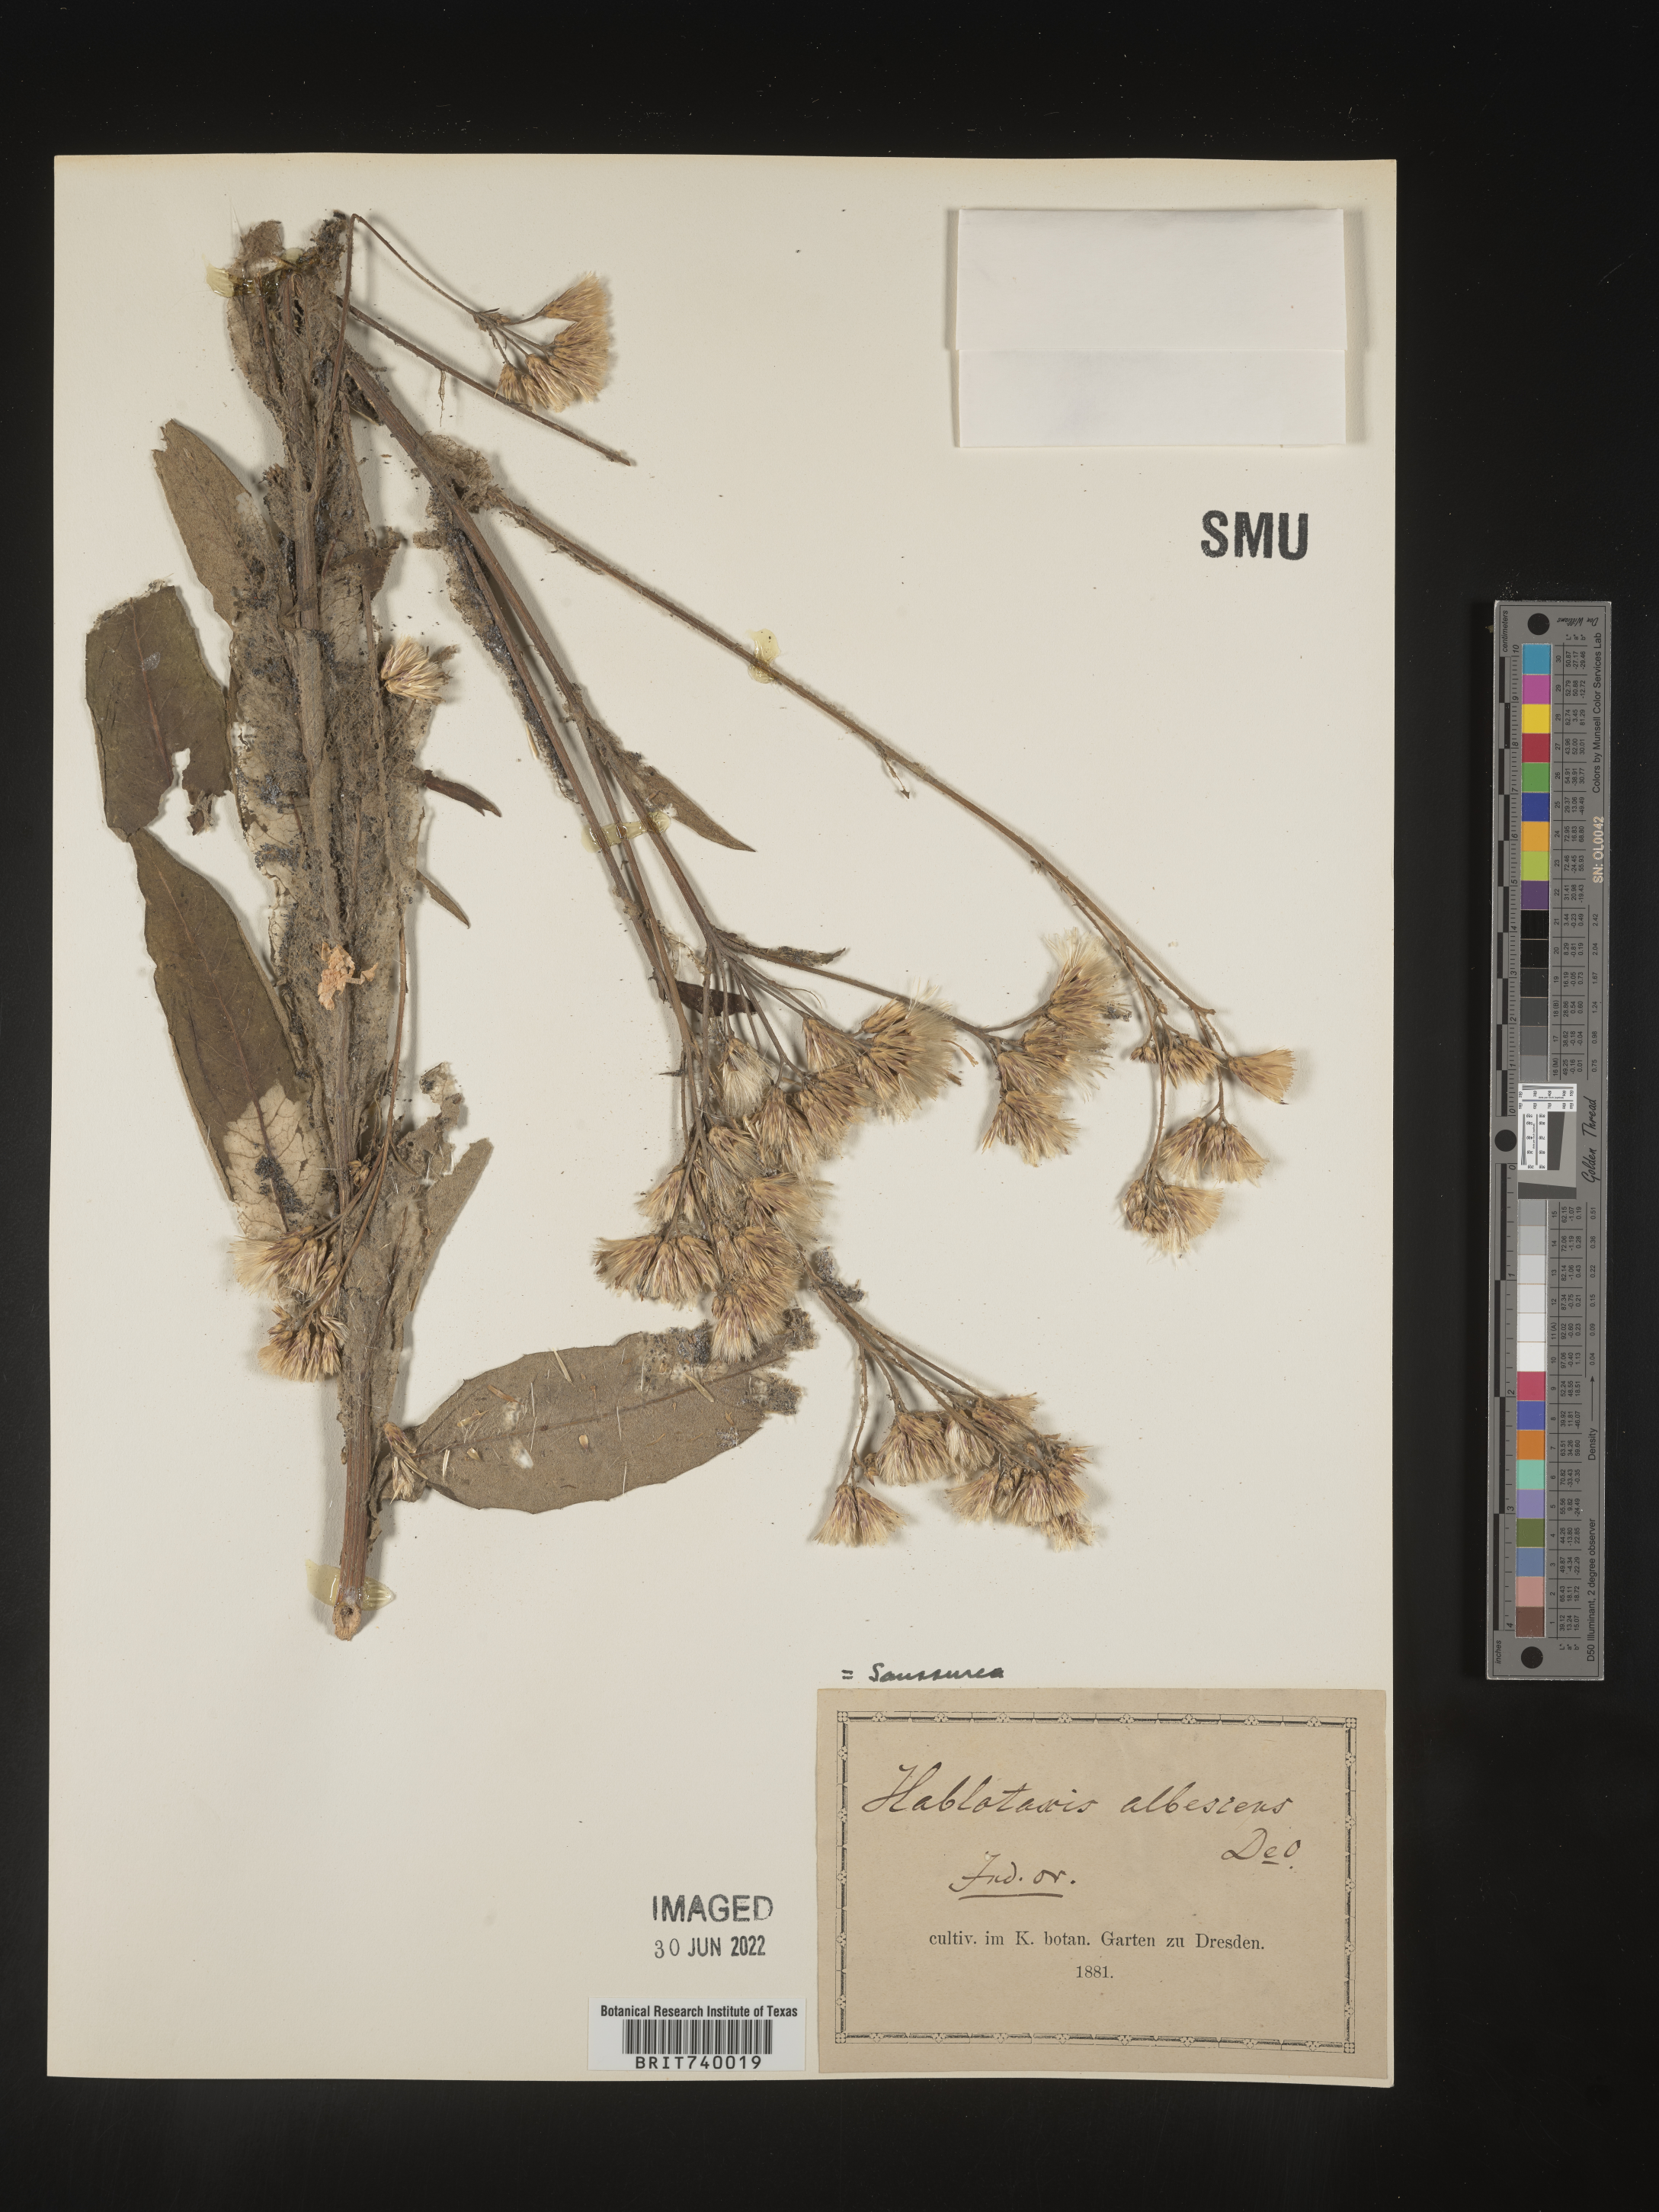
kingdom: Plantae
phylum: Tracheophyta
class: Magnoliopsida
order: Asterales
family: Asteraceae
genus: Saussurea
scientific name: Saussurea
